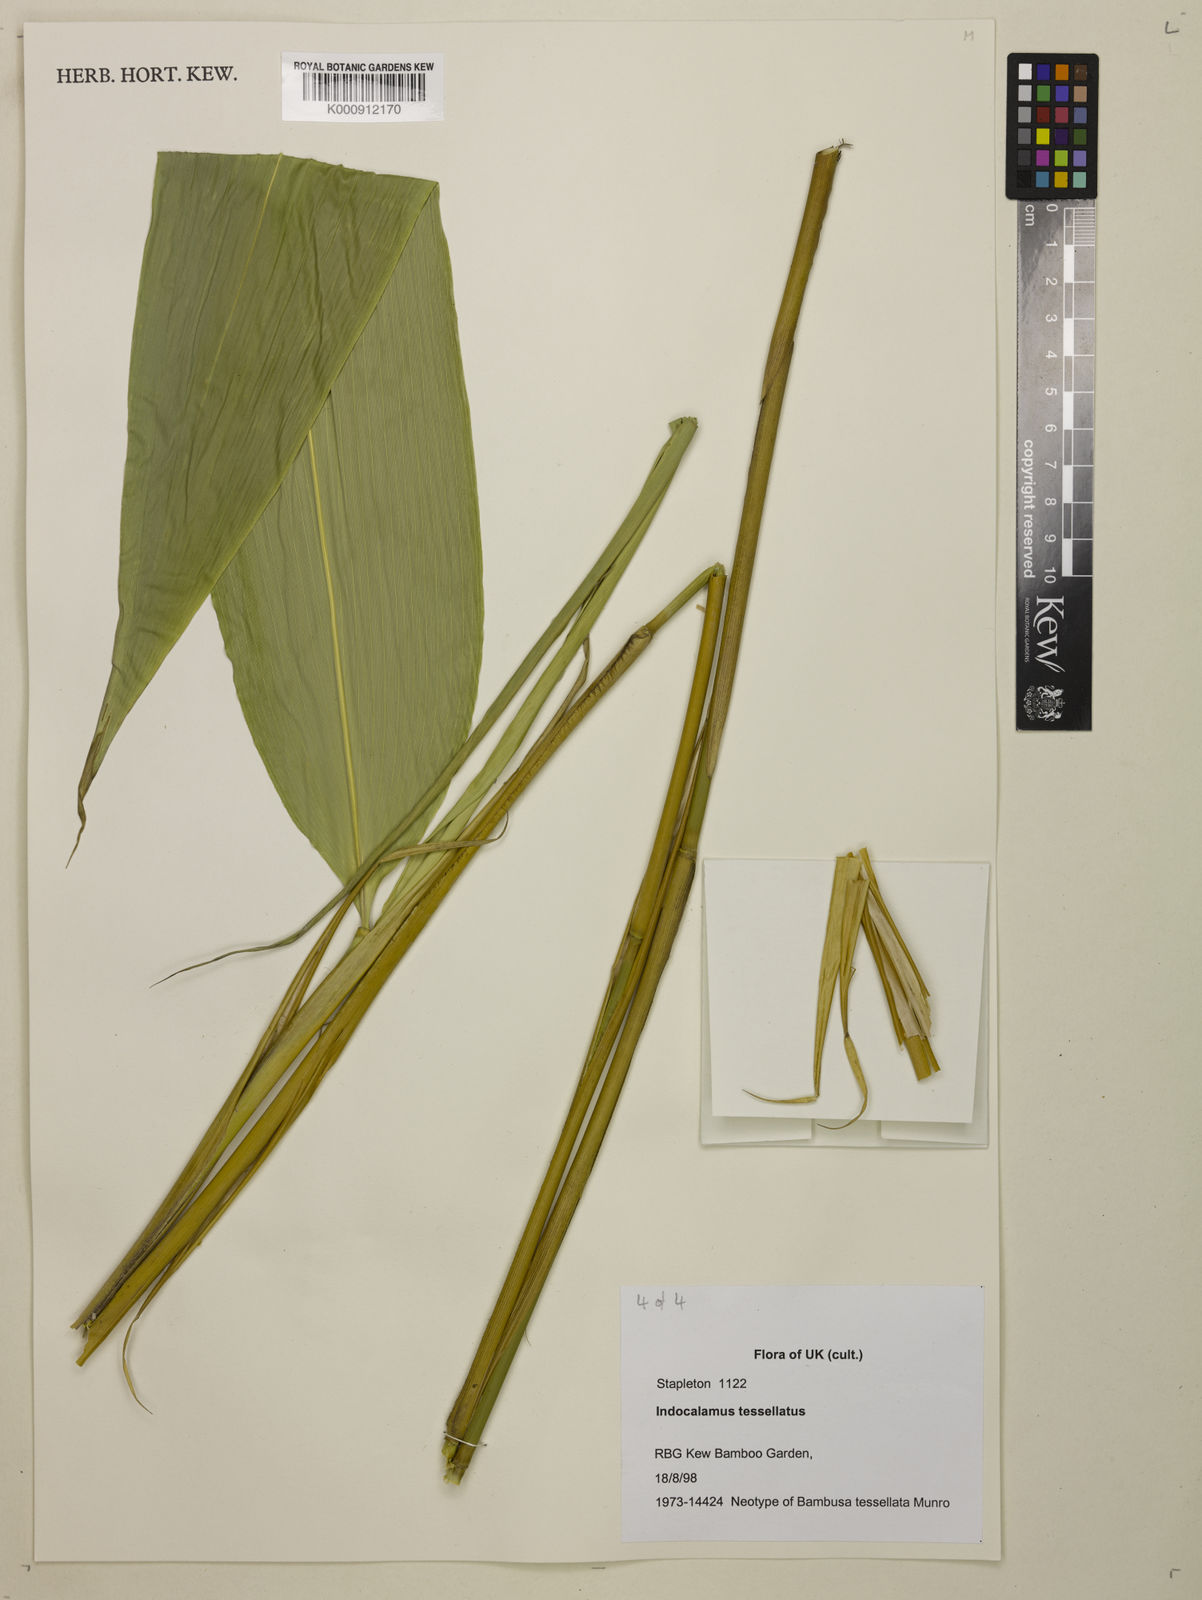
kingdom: Plantae
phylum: Tracheophyta
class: Liliopsida
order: Poales
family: Poaceae
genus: Indocalamus
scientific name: Indocalamus tessellatus
